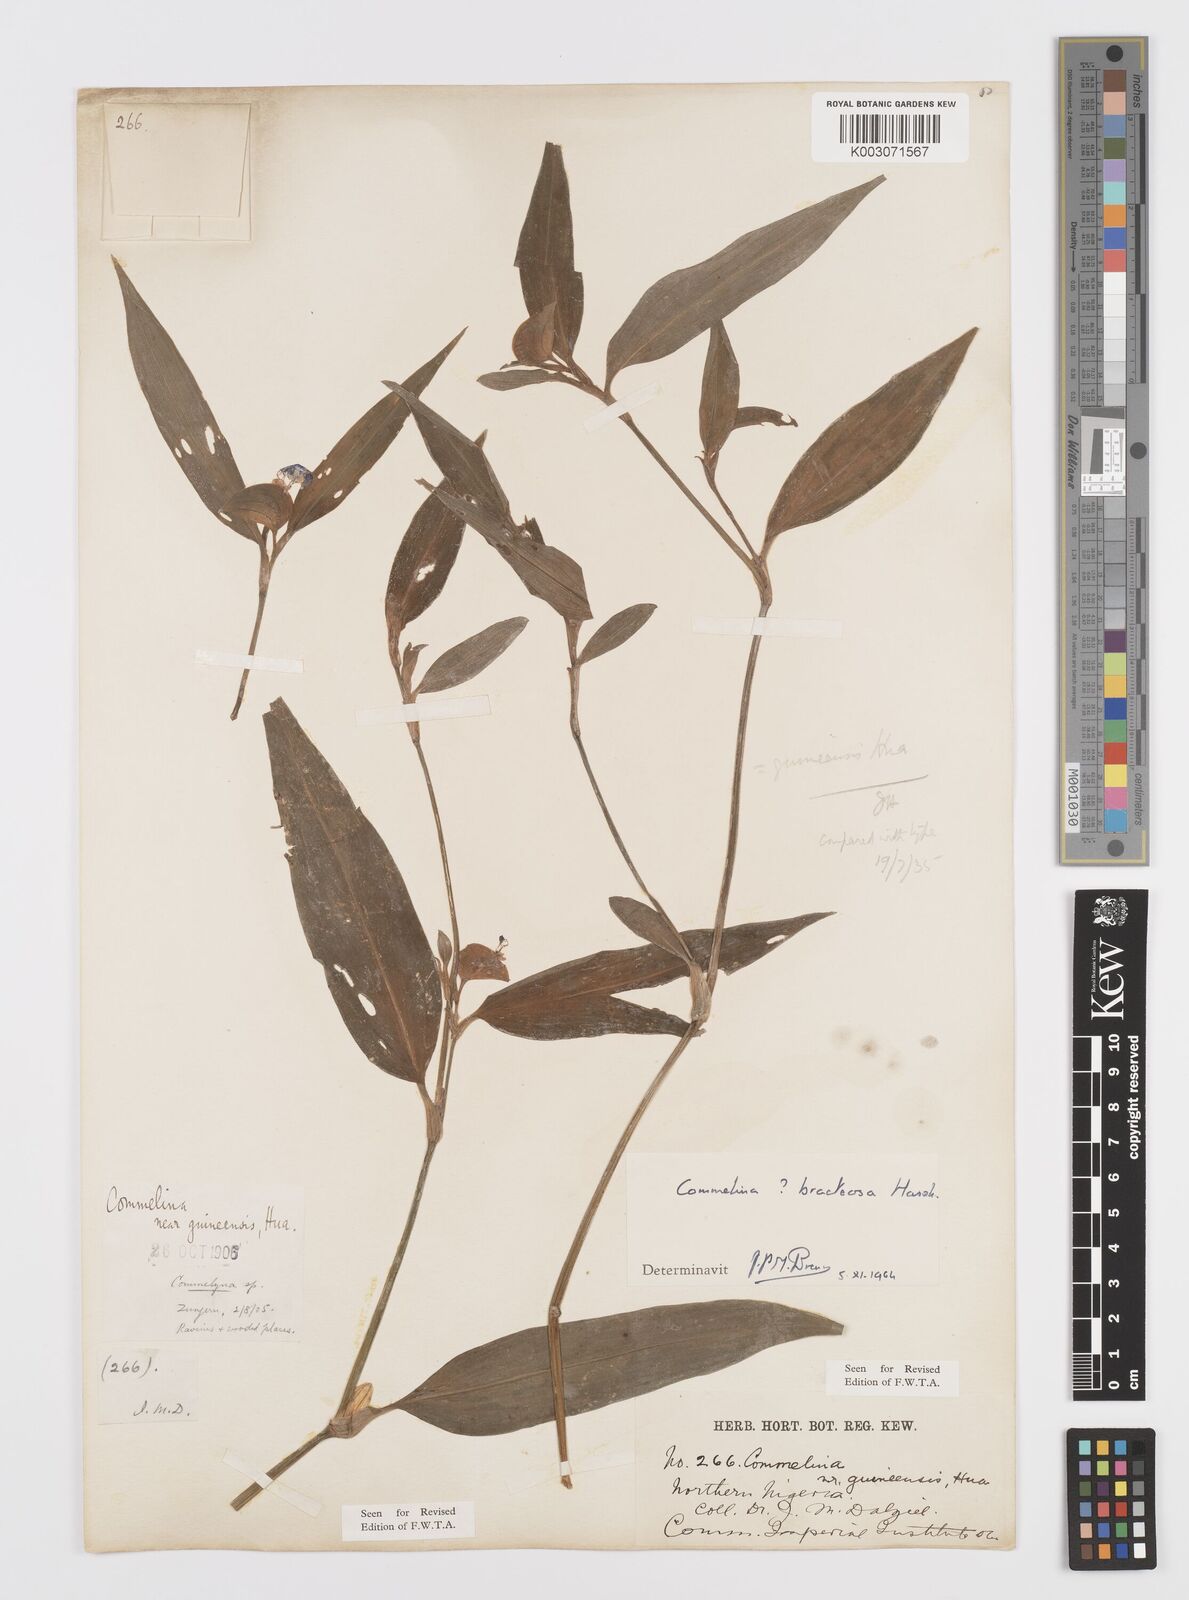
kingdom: Plantae
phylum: Tracheophyta
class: Liliopsida
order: Commelinales
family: Commelinaceae
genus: Commelina
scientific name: Commelina bracteosa
